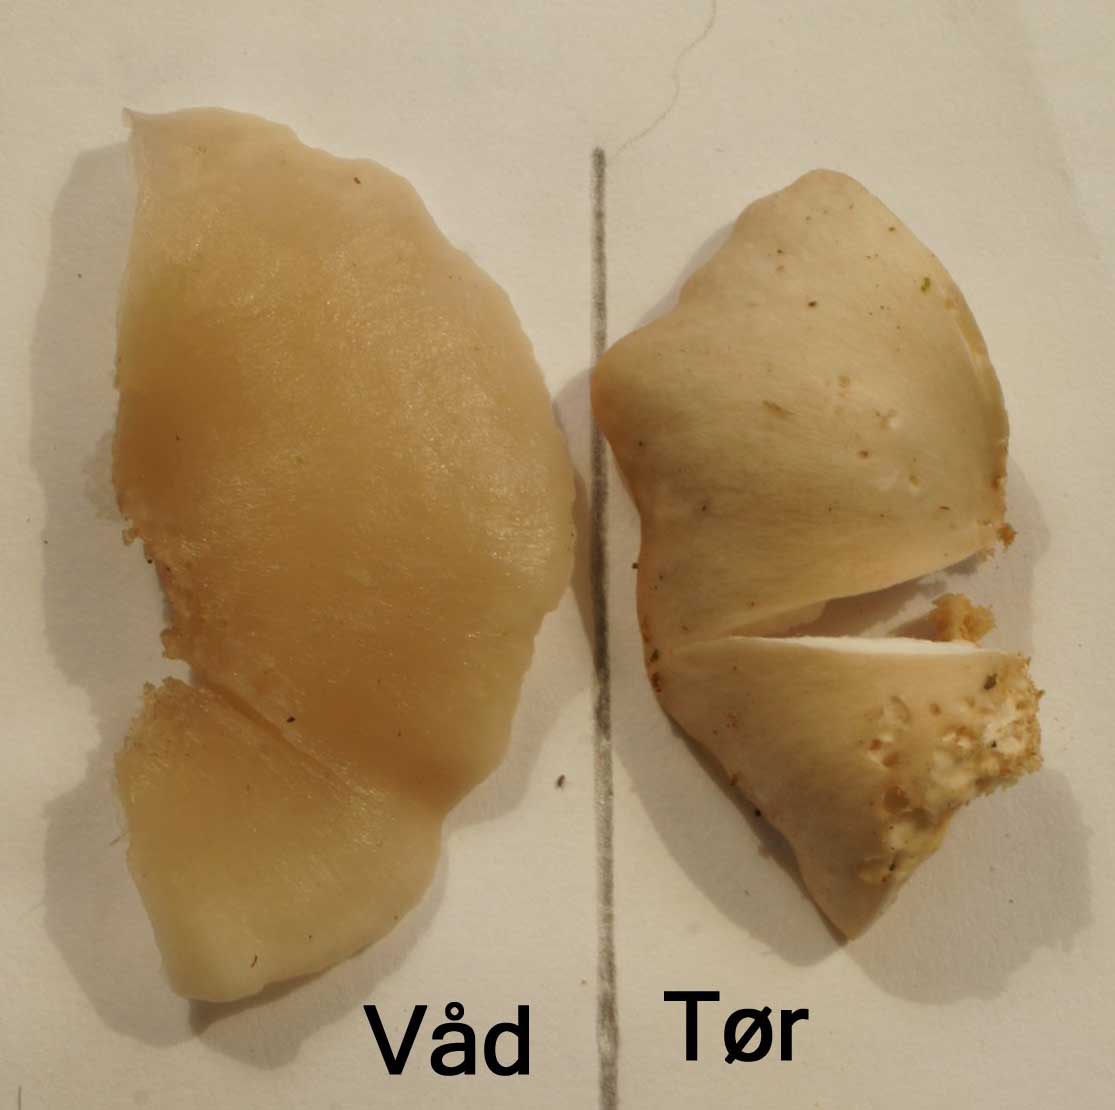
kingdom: Fungi
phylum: Basidiomycota
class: Agaricomycetes
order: Agaricales
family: Tricholomataceae
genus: Clitocybe
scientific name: Clitocybe phaeophthalma
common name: stinkende tragthat
